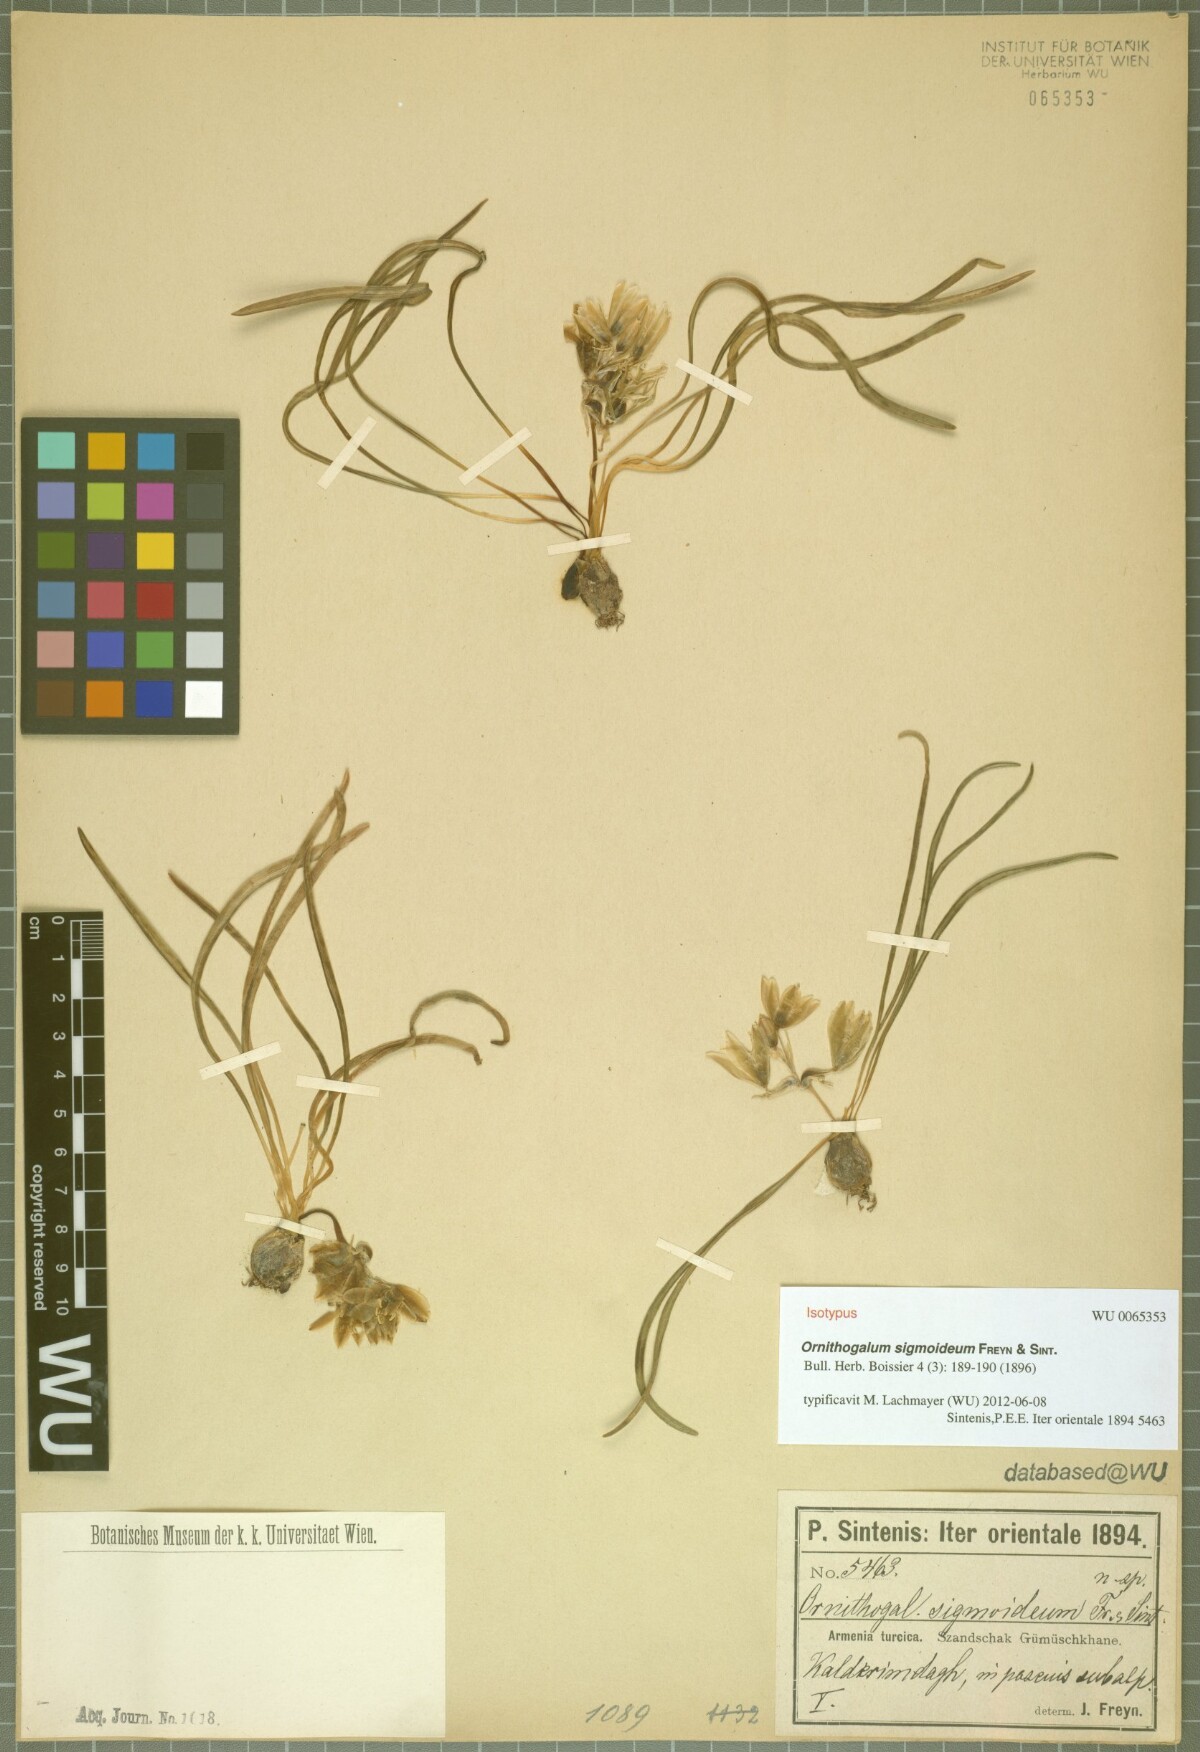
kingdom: Plantae
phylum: Tracheophyta
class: Liliopsida
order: Asparagales
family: Asparagaceae
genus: Ornithogalum
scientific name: Ornithogalum sigmoideum
